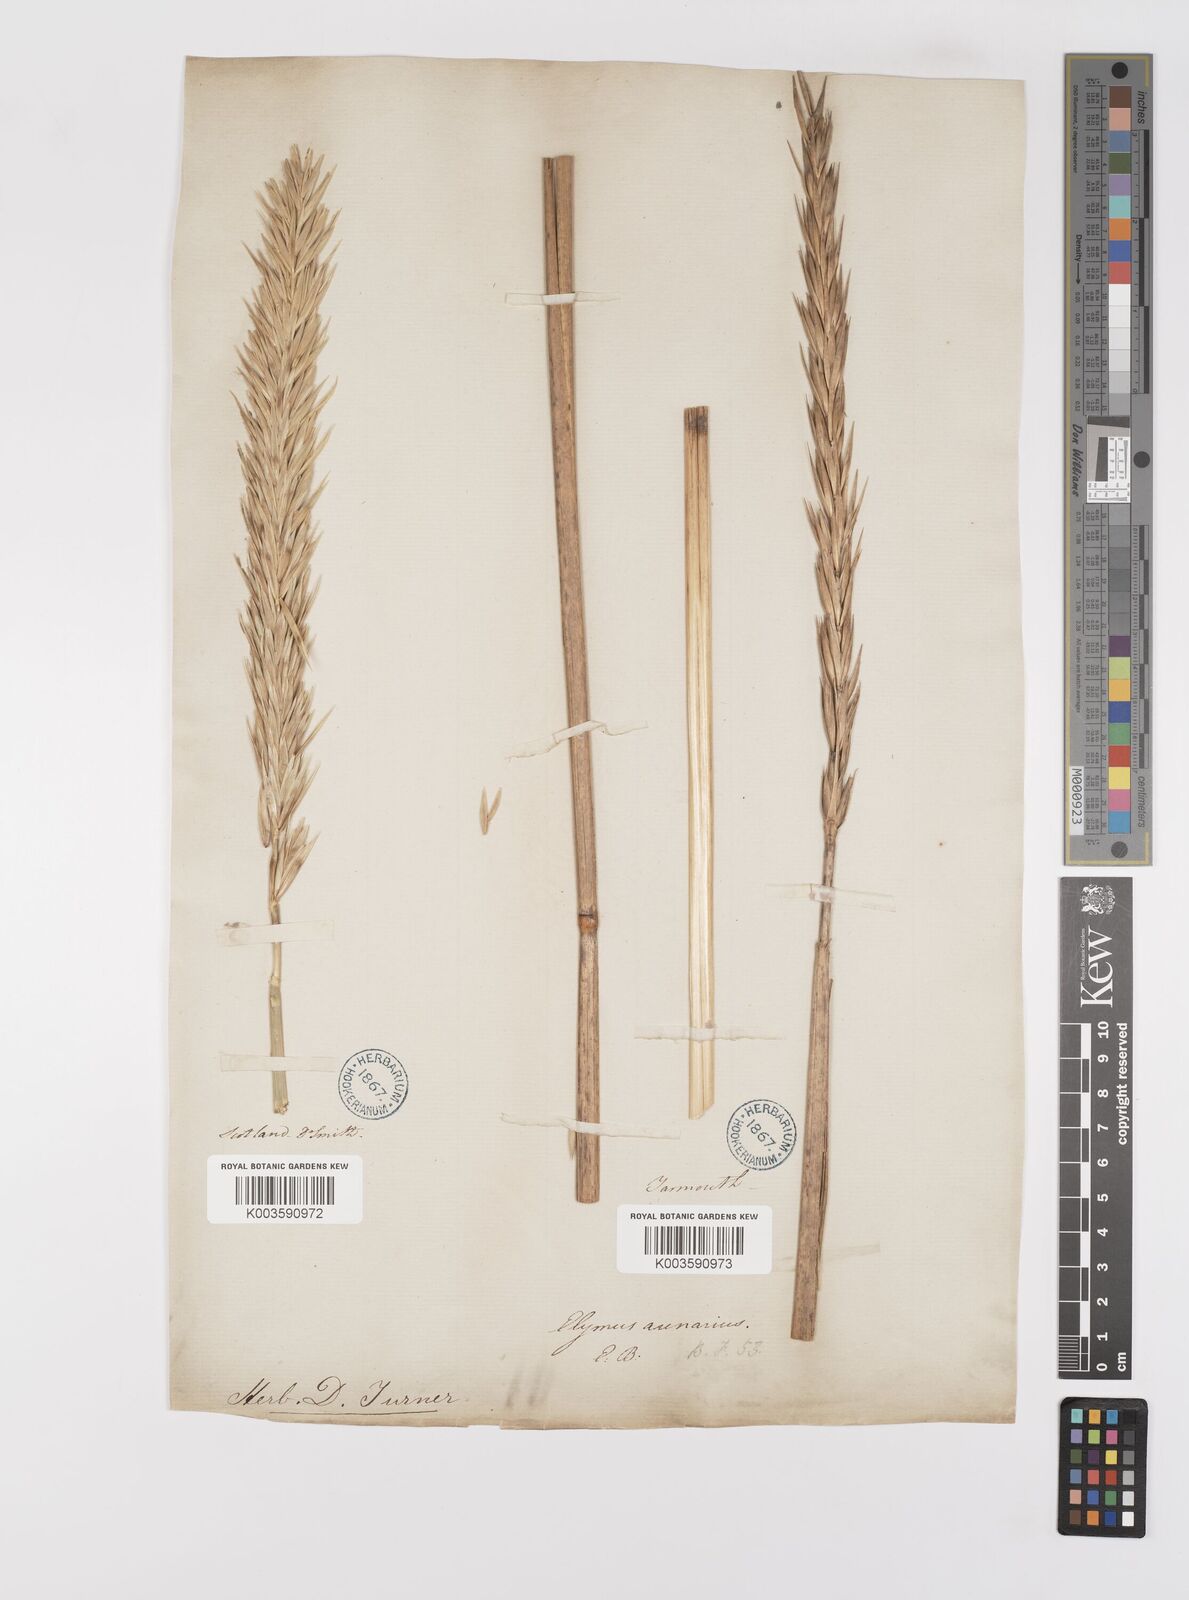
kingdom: Plantae
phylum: Tracheophyta
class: Liliopsida
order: Poales
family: Poaceae
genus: Leymus
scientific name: Leymus arenarius
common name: Lyme-grass
